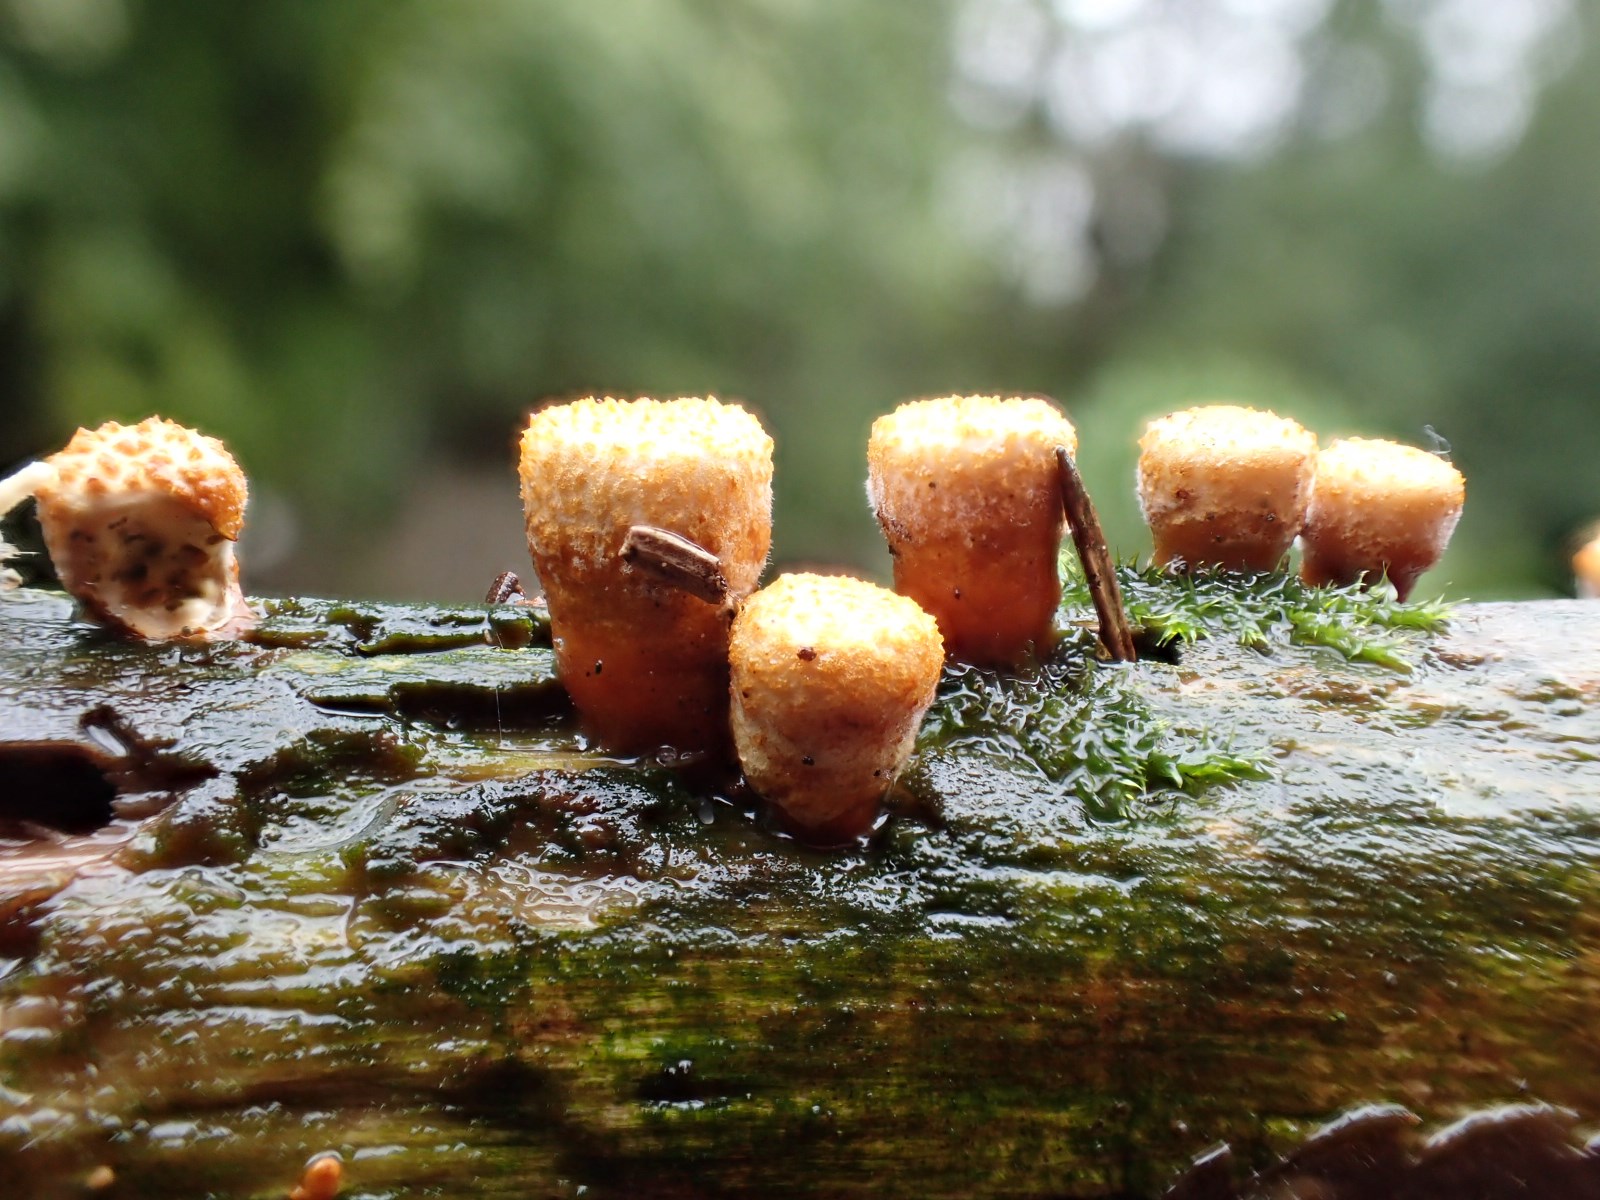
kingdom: Fungi
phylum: Basidiomycota
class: Agaricomycetes
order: Agaricales
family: Nidulariaceae
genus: Crucibulum
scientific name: Crucibulum crucibuliforme
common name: krukkesvamp
